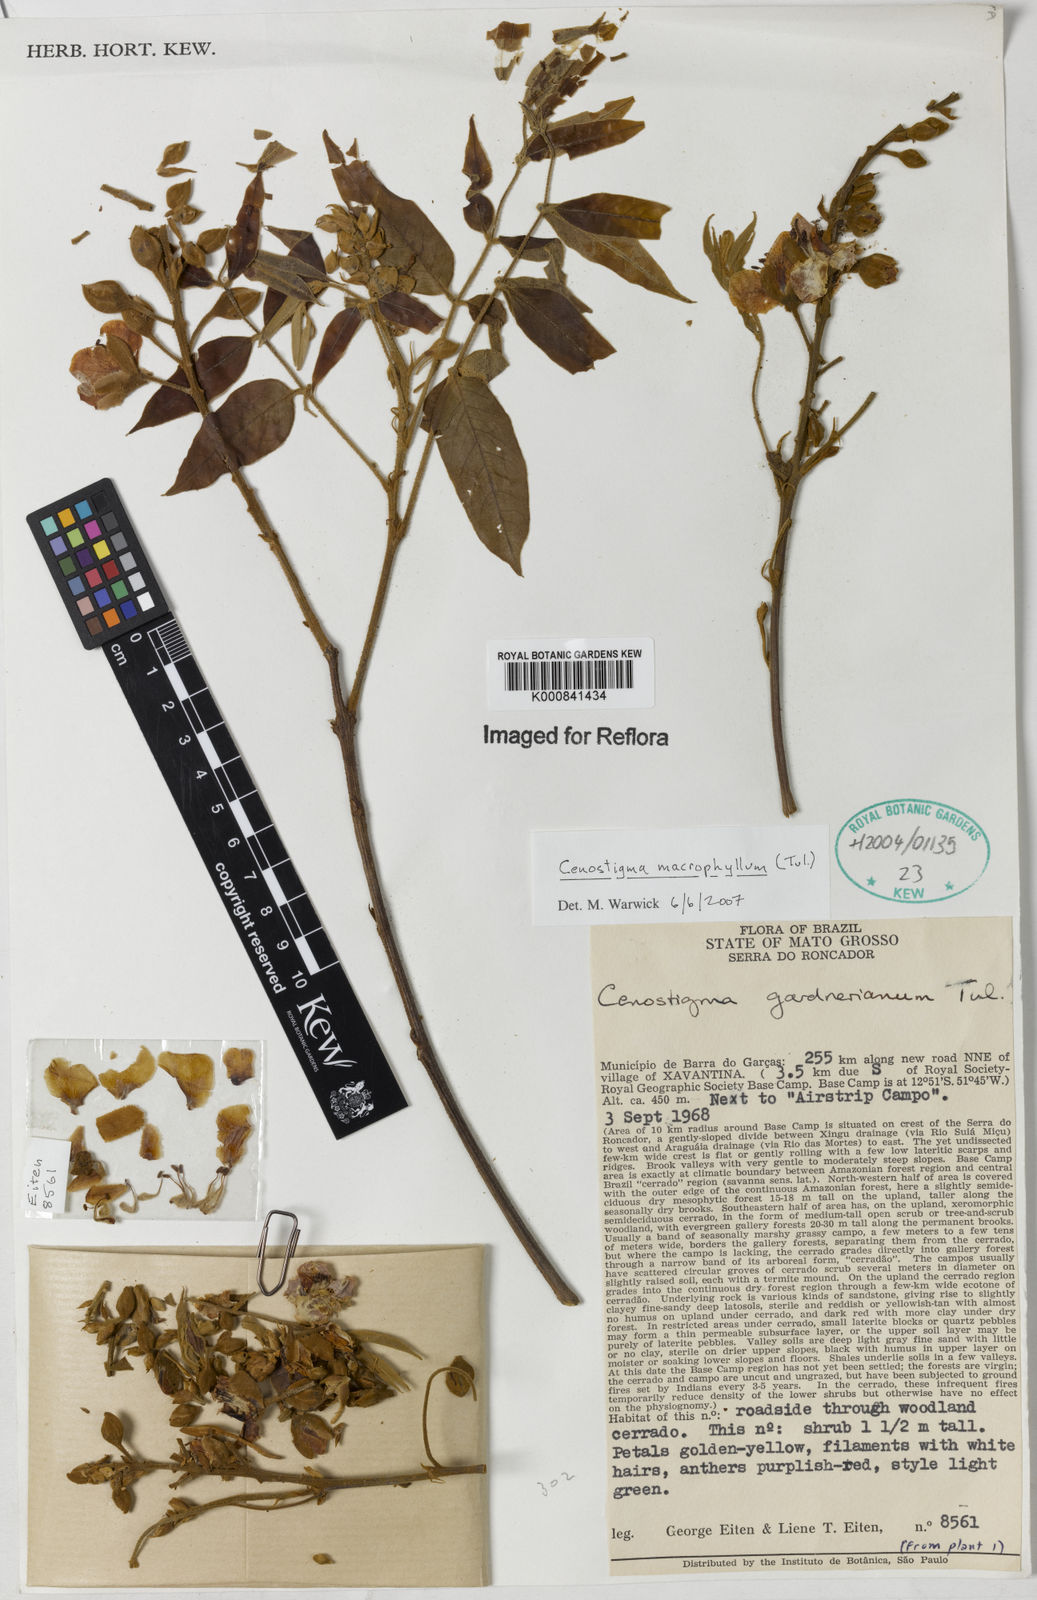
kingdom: Plantae
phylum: Tracheophyta
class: Magnoliopsida
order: Fabales
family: Fabaceae
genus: Cenostigma
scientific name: Cenostigma macrophyllum
